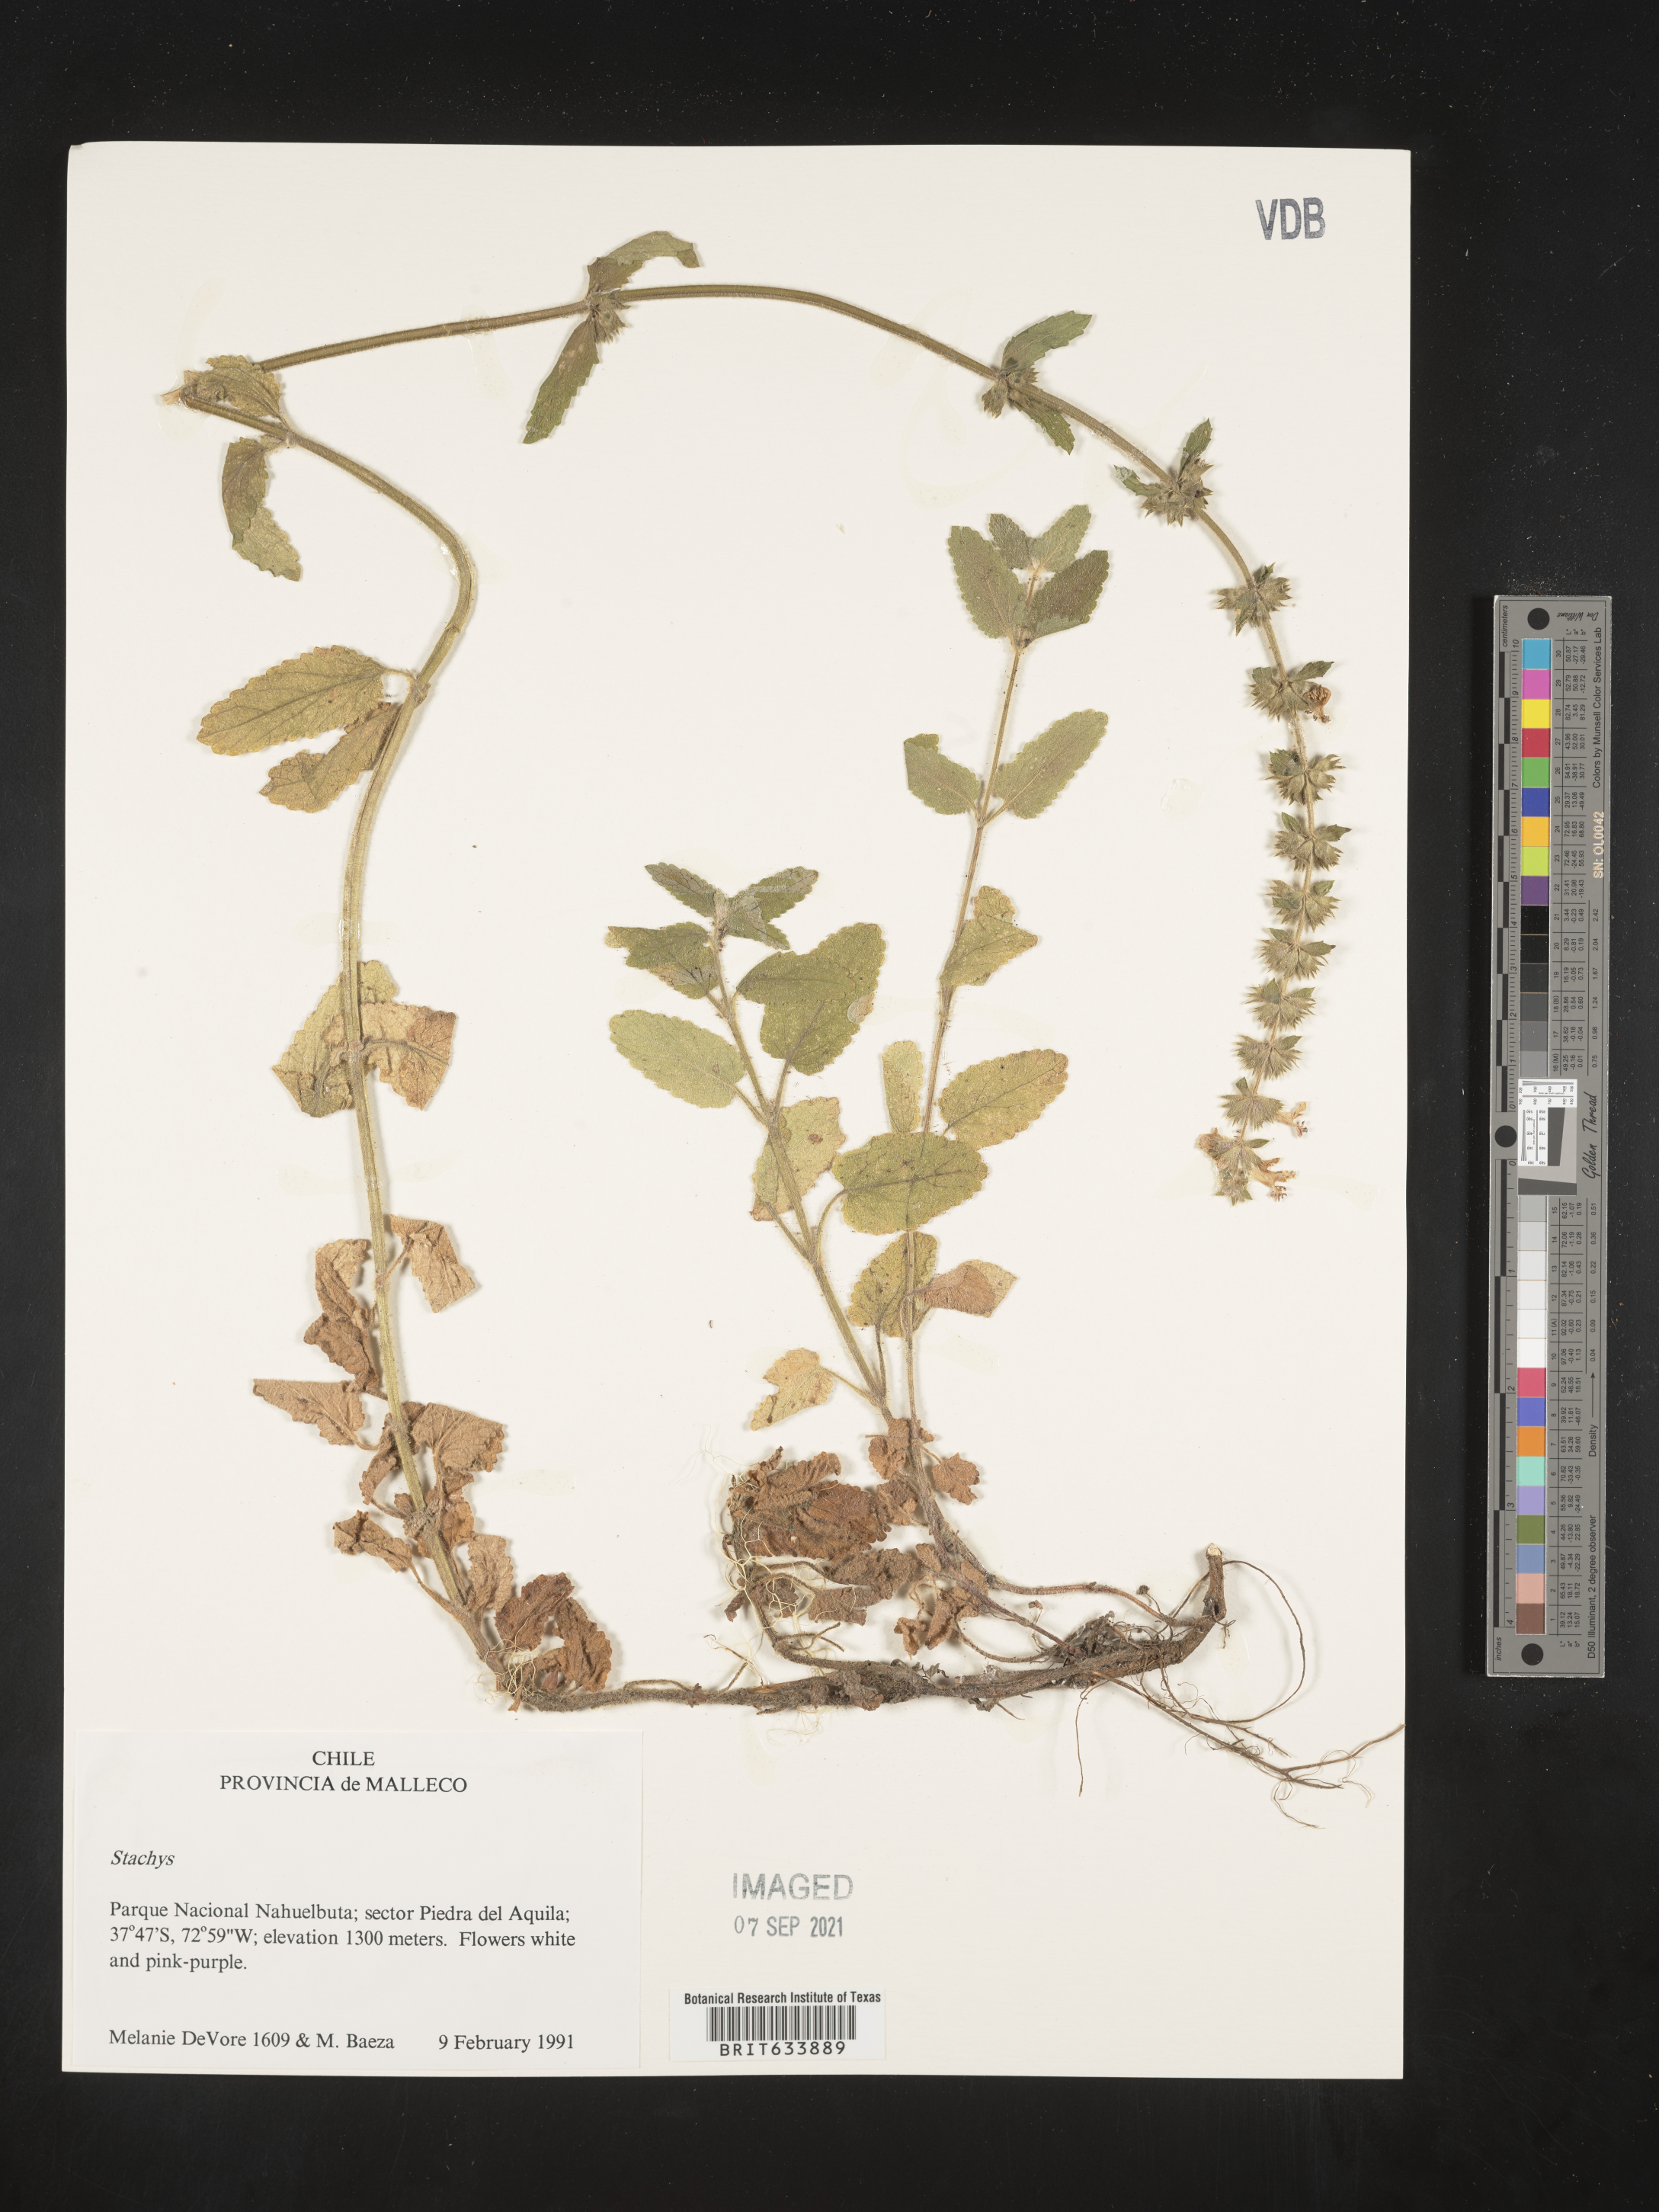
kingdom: Plantae
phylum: Tracheophyta
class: Magnoliopsida
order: Lamiales
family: Lamiaceae
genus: Stachys
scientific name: Stachys
